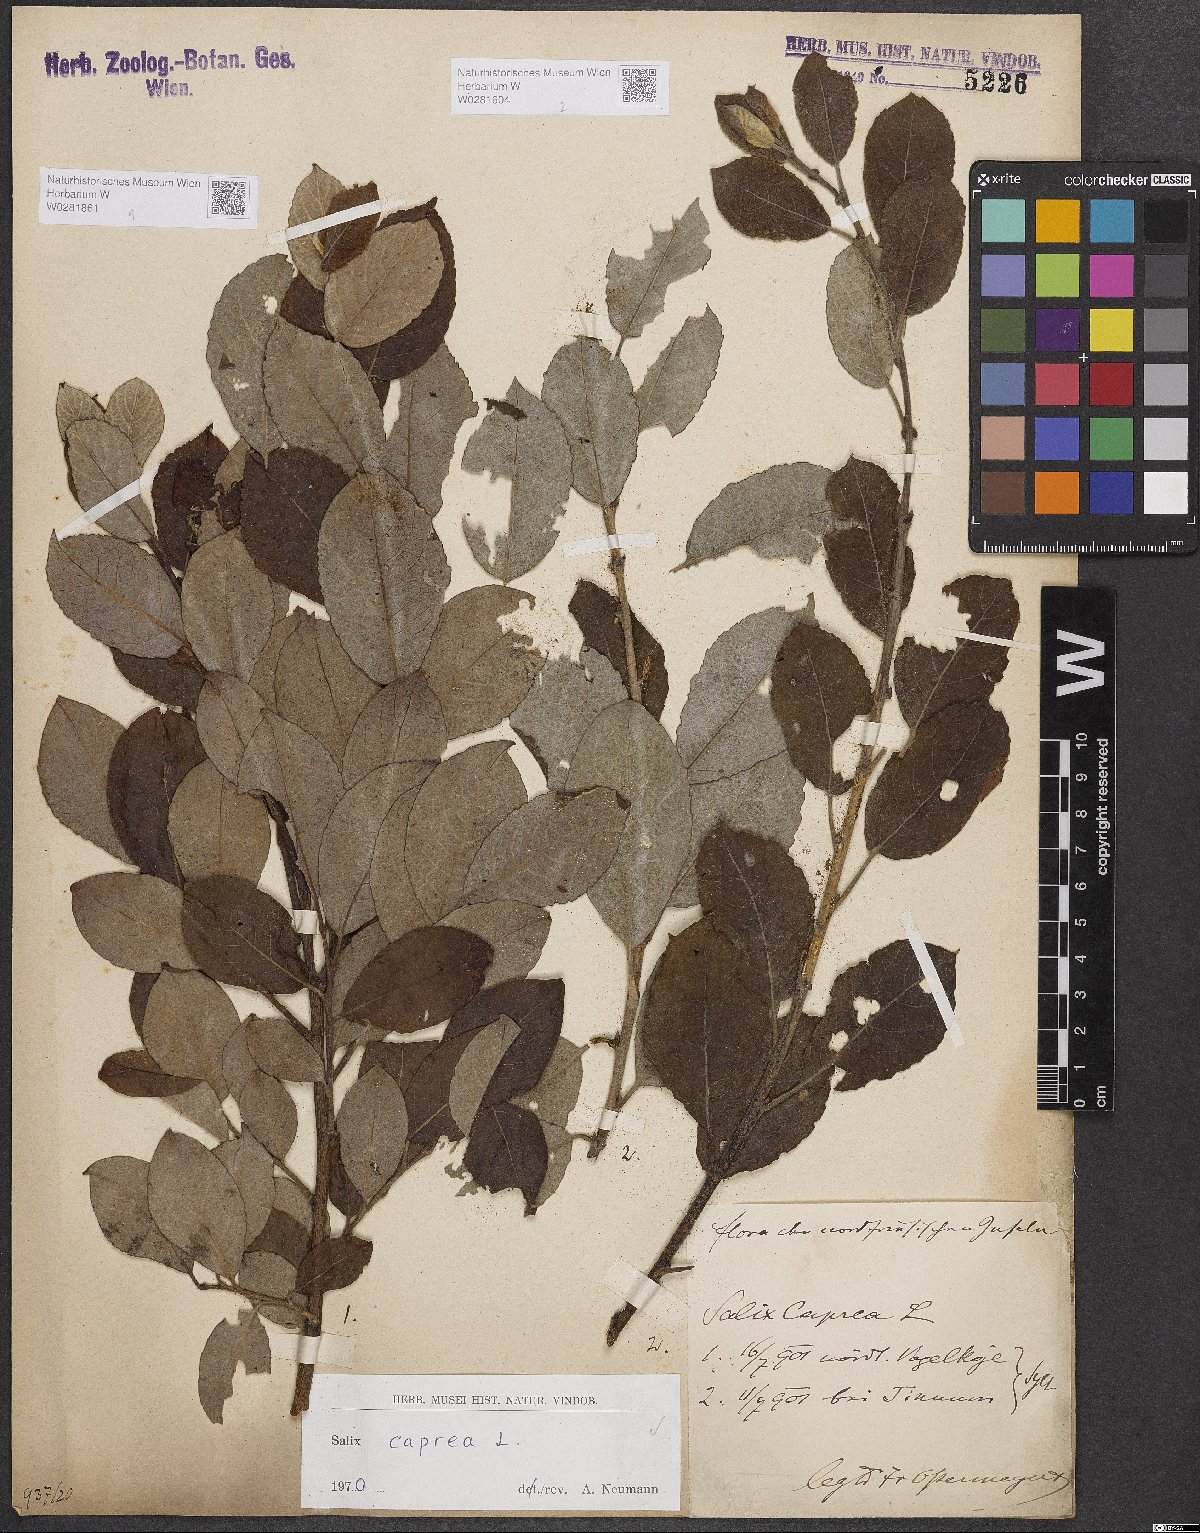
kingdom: Plantae
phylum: Tracheophyta
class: Magnoliopsida
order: Malpighiales
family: Salicaceae
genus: Salix
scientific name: Salix caprea
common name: Goat willow
